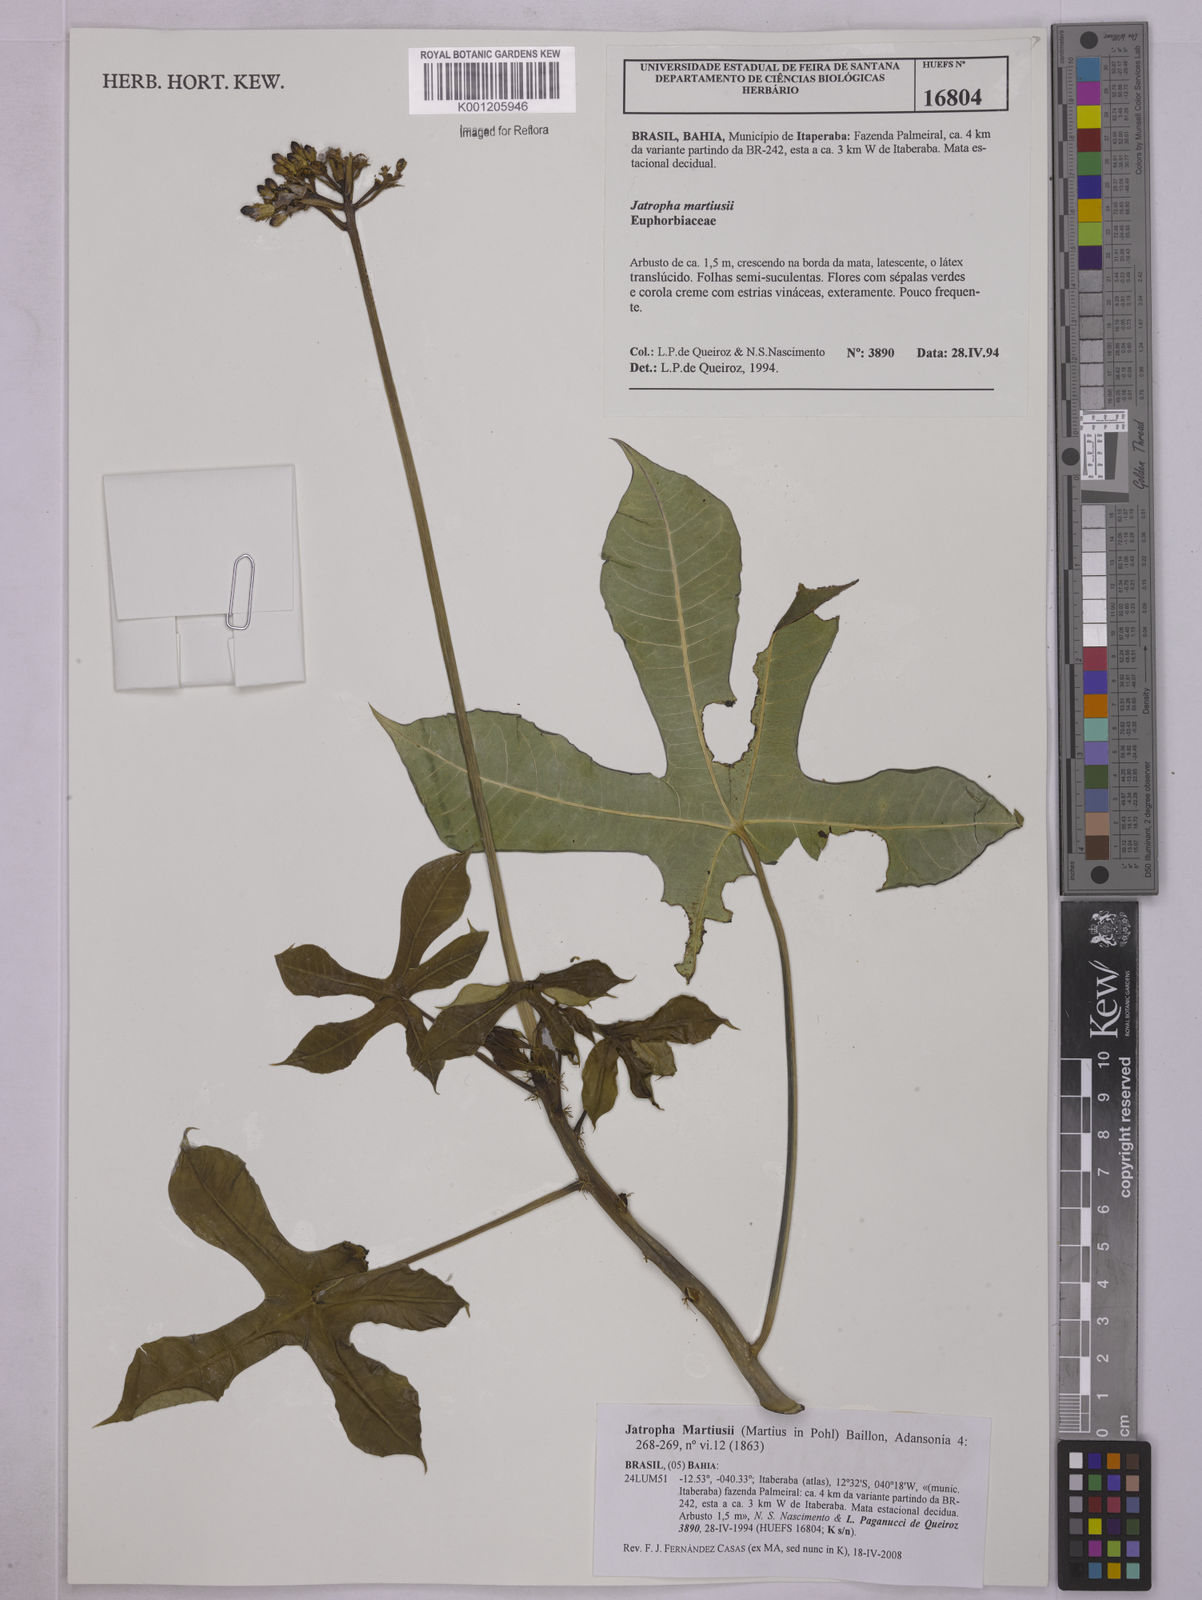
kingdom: Plantae
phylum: Tracheophyta
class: Magnoliopsida
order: Malpighiales
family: Euphorbiaceae
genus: Jatropha
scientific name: Jatropha martiusii
